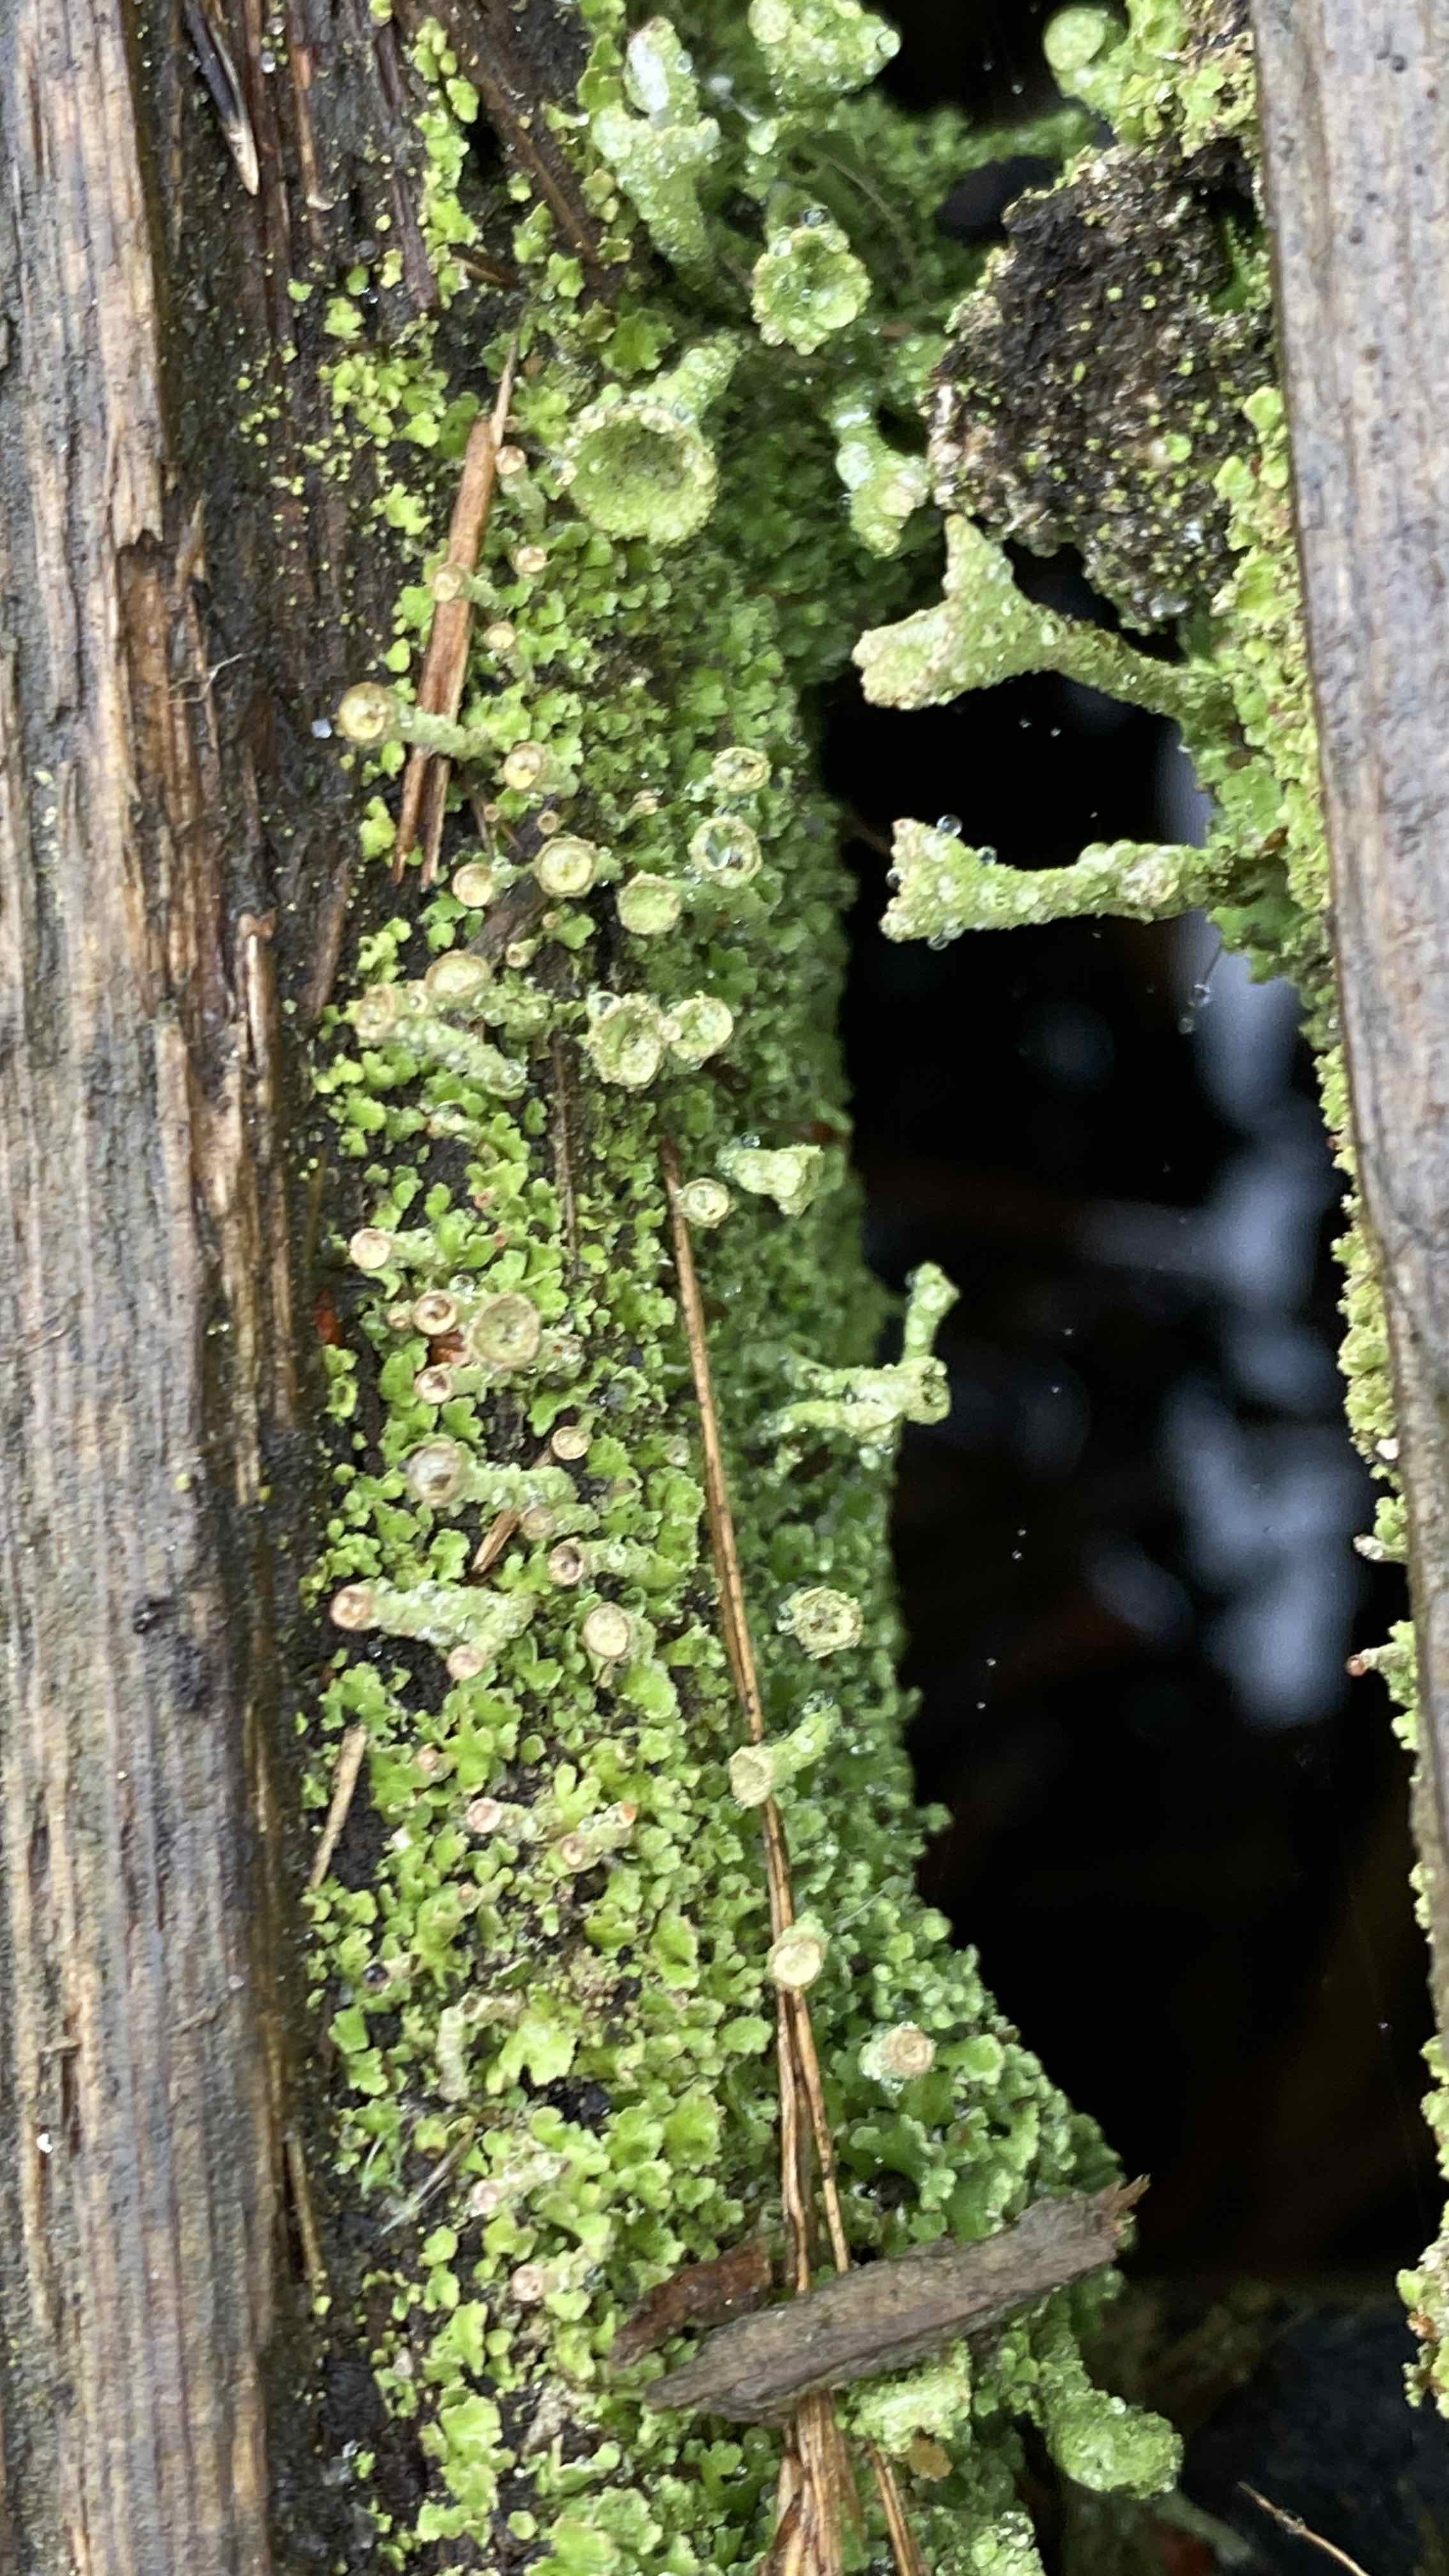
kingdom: Fungi
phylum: Ascomycota
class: Lecanoromycetes
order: Lecanorales
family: Cladoniaceae
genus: Cladonia
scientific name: Cladonia
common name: brungrøn bægerlav
